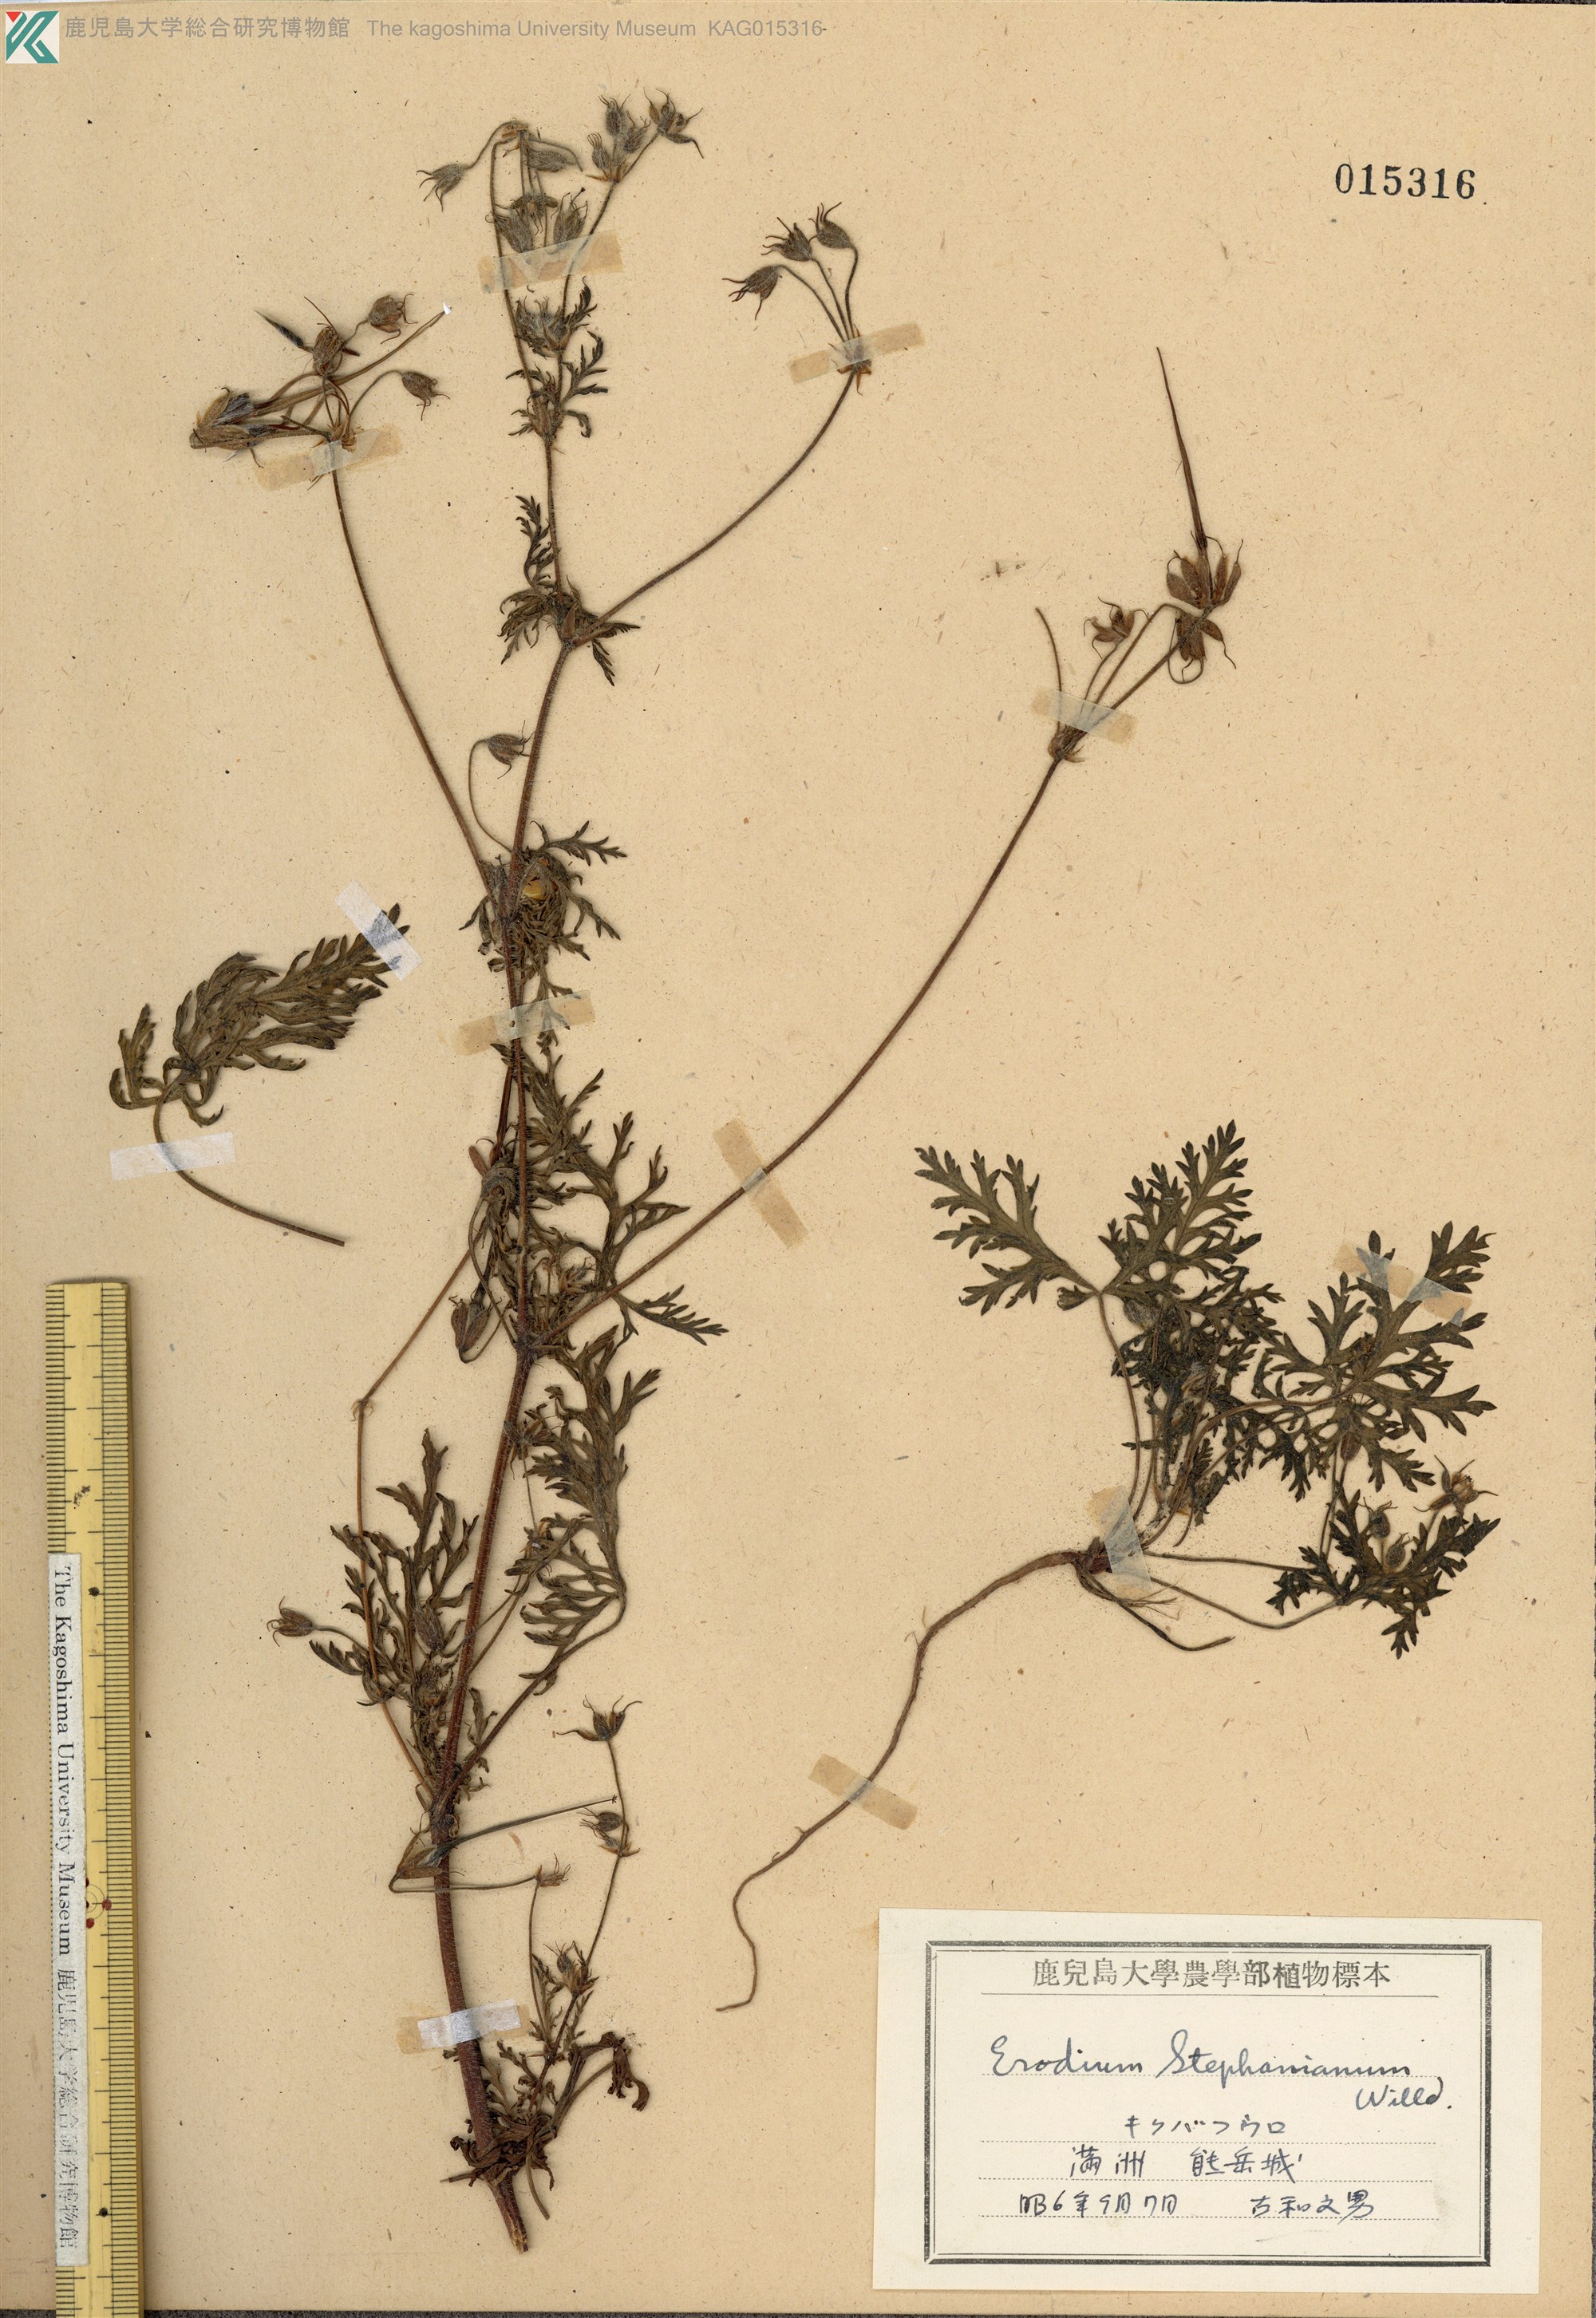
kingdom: Plantae
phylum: Tracheophyta
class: Magnoliopsida
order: Geraniales
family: Geraniaceae
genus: Erodium
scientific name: Erodium stephanianum
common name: Stephen's stork's bill
